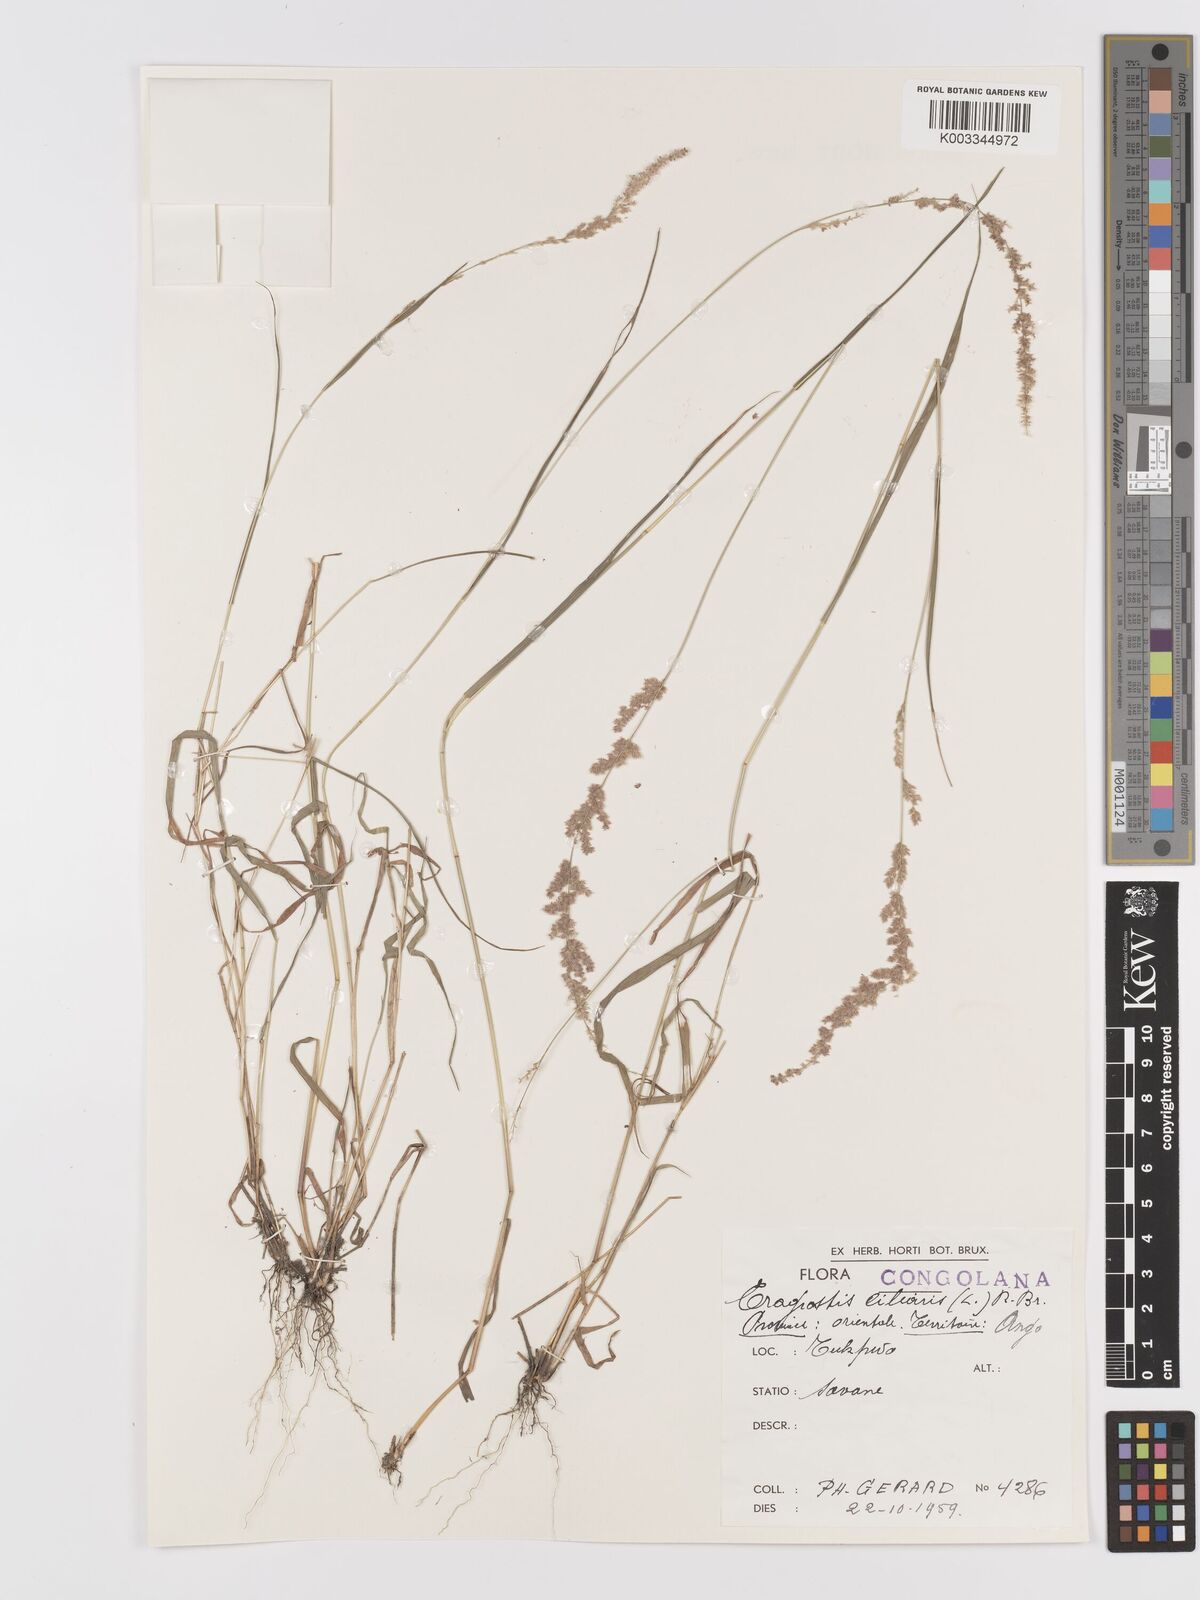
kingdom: Plantae
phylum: Tracheophyta
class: Liliopsida
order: Poales
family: Poaceae
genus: Eragrostis
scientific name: Eragrostis ciliaris
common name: Gophertail lovegrass
